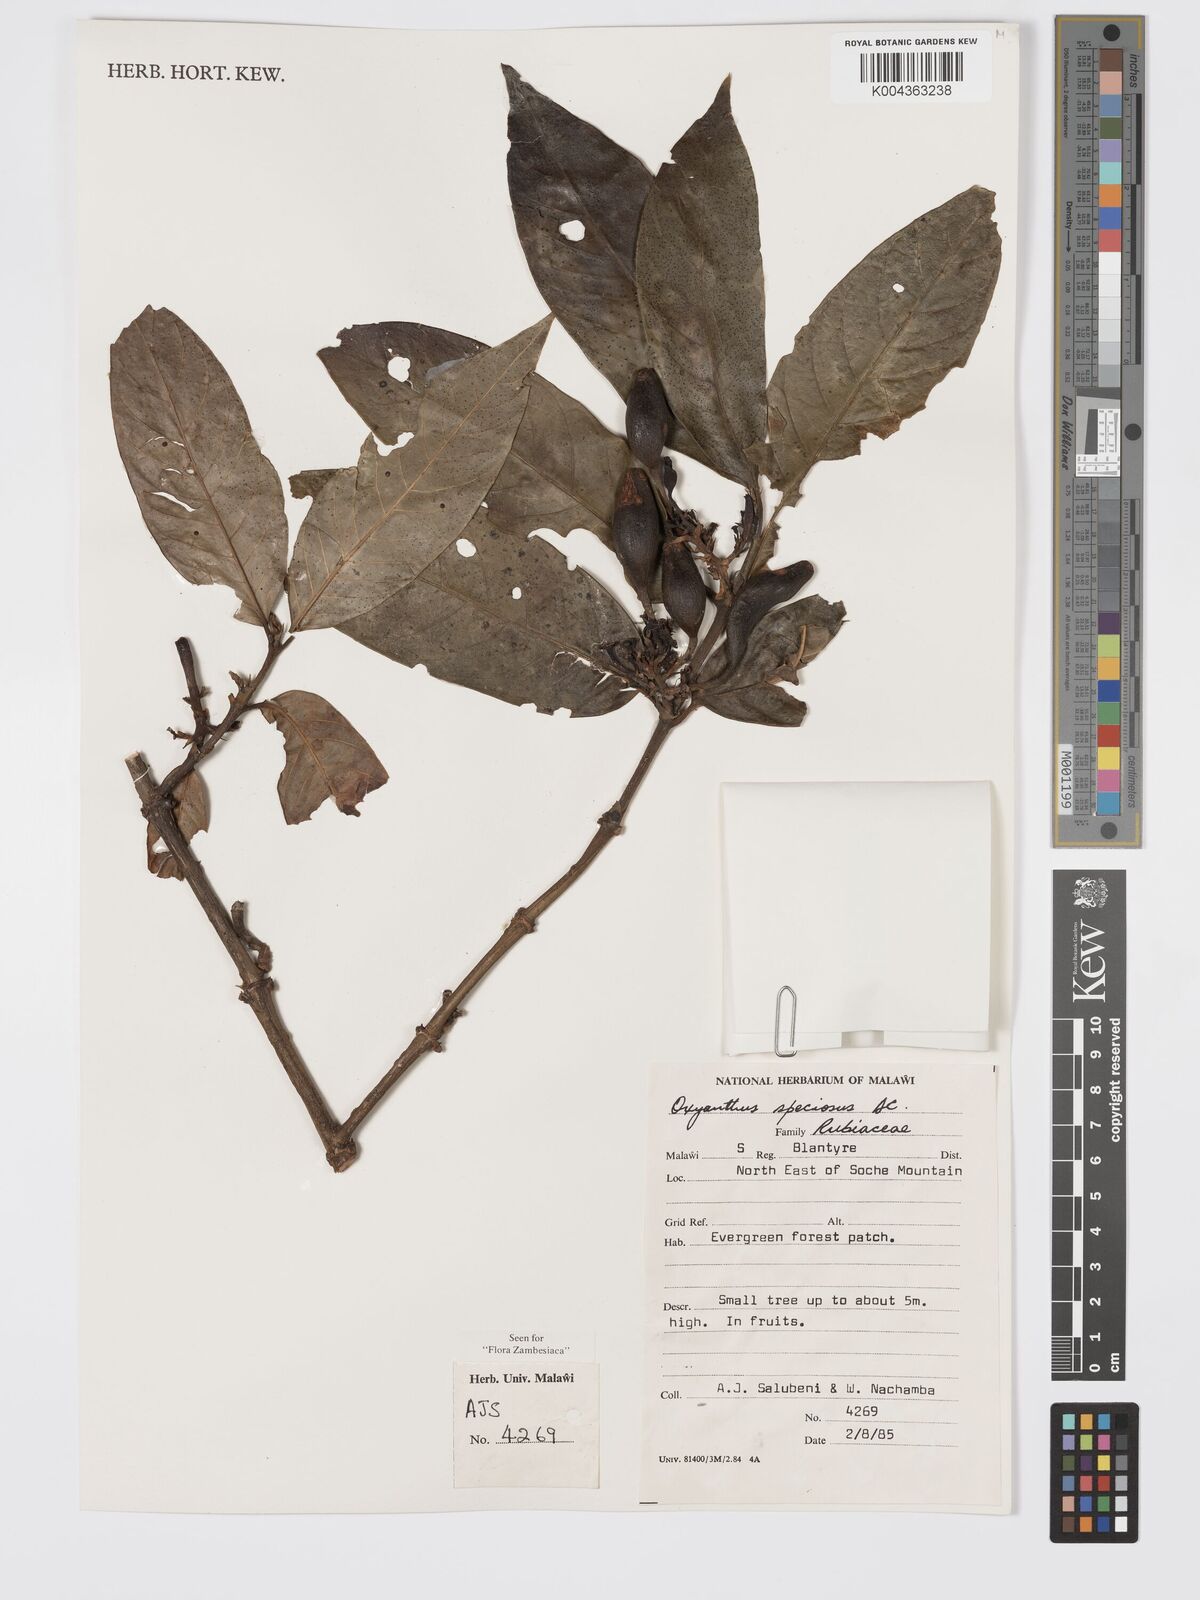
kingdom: Plantae
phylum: Tracheophyta
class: Magnoliopsida
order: Gentianales
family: Rubiaceae
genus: Oxyanthus
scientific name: Oxyanthus speciosus
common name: Whipstick loquat
